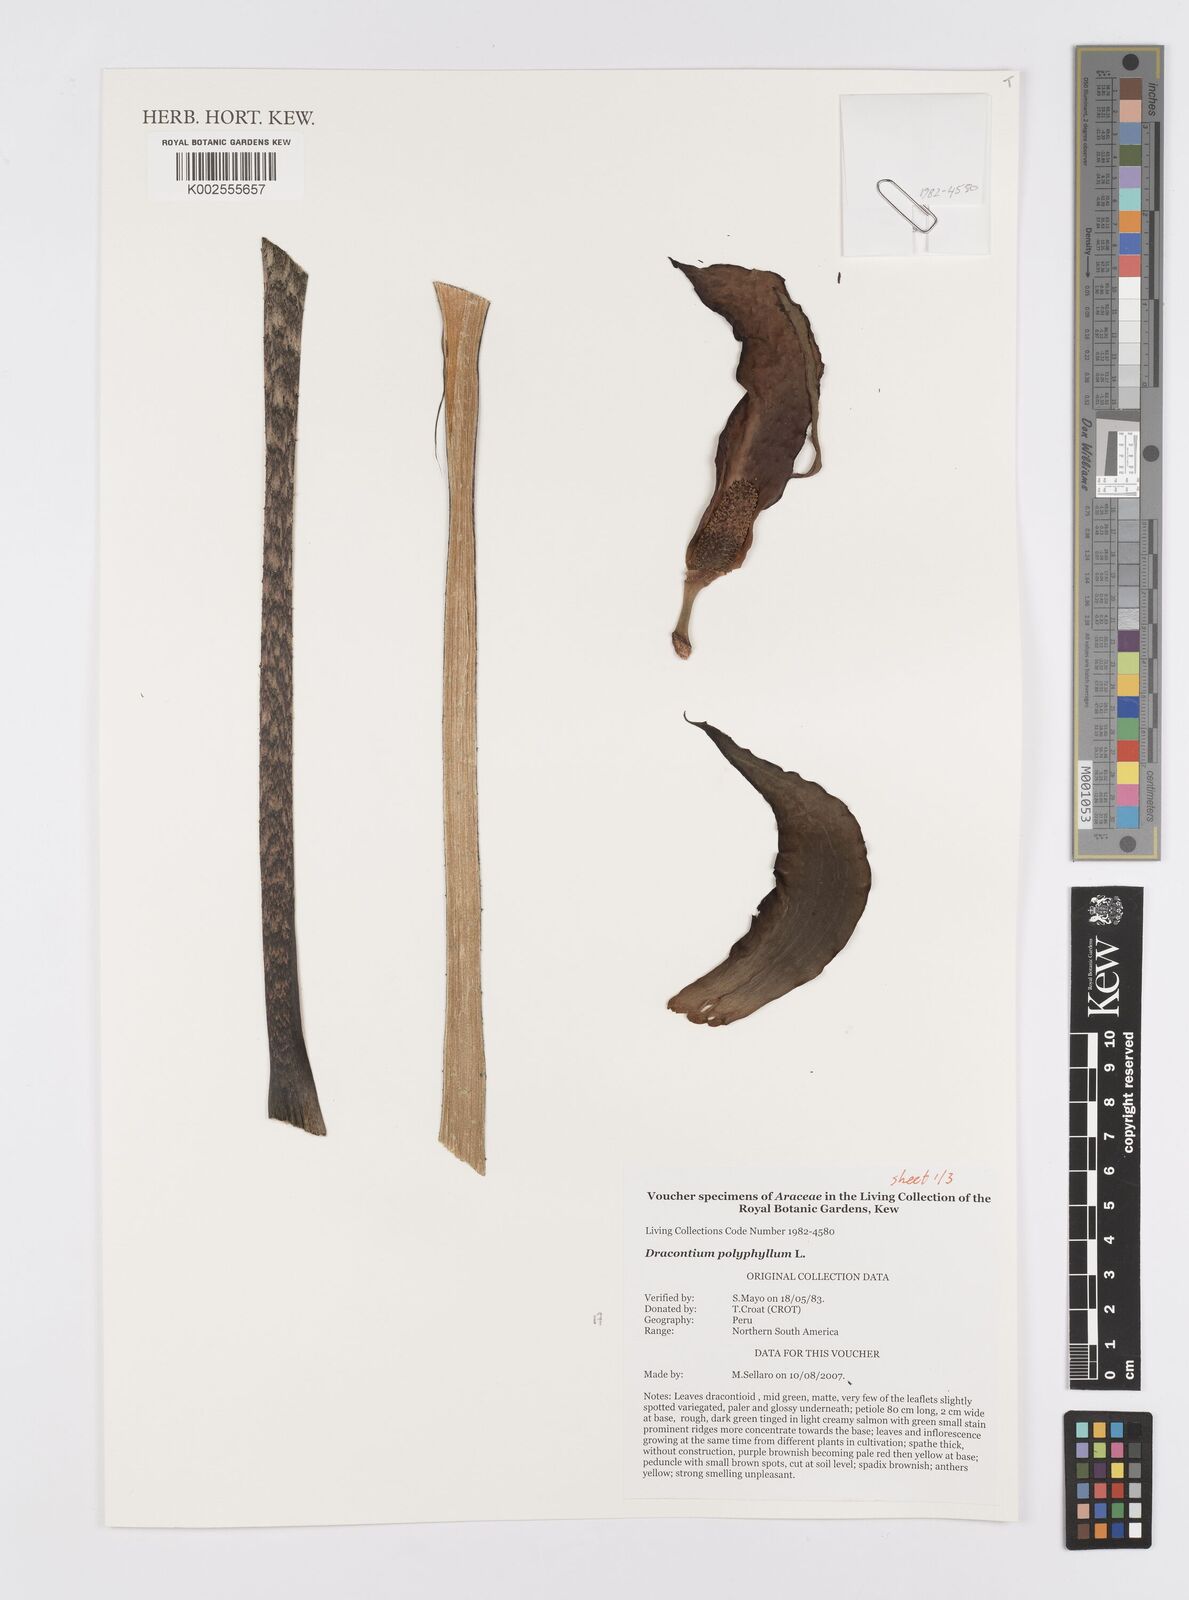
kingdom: Plantae
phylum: Tracheophyta
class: Liliopsida
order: Alismatales
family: Araceae
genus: Dracontium
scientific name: Dracontium polyphyllum
